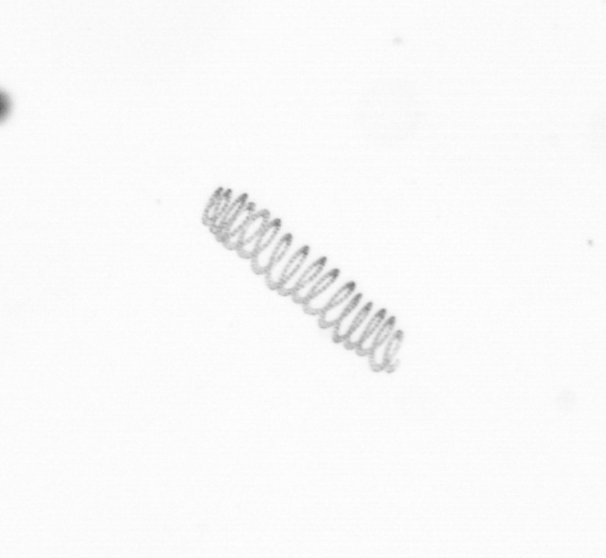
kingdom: Chromista
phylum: Ochrophyta
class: Bacillariophyceae
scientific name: Bacillariophyceae
